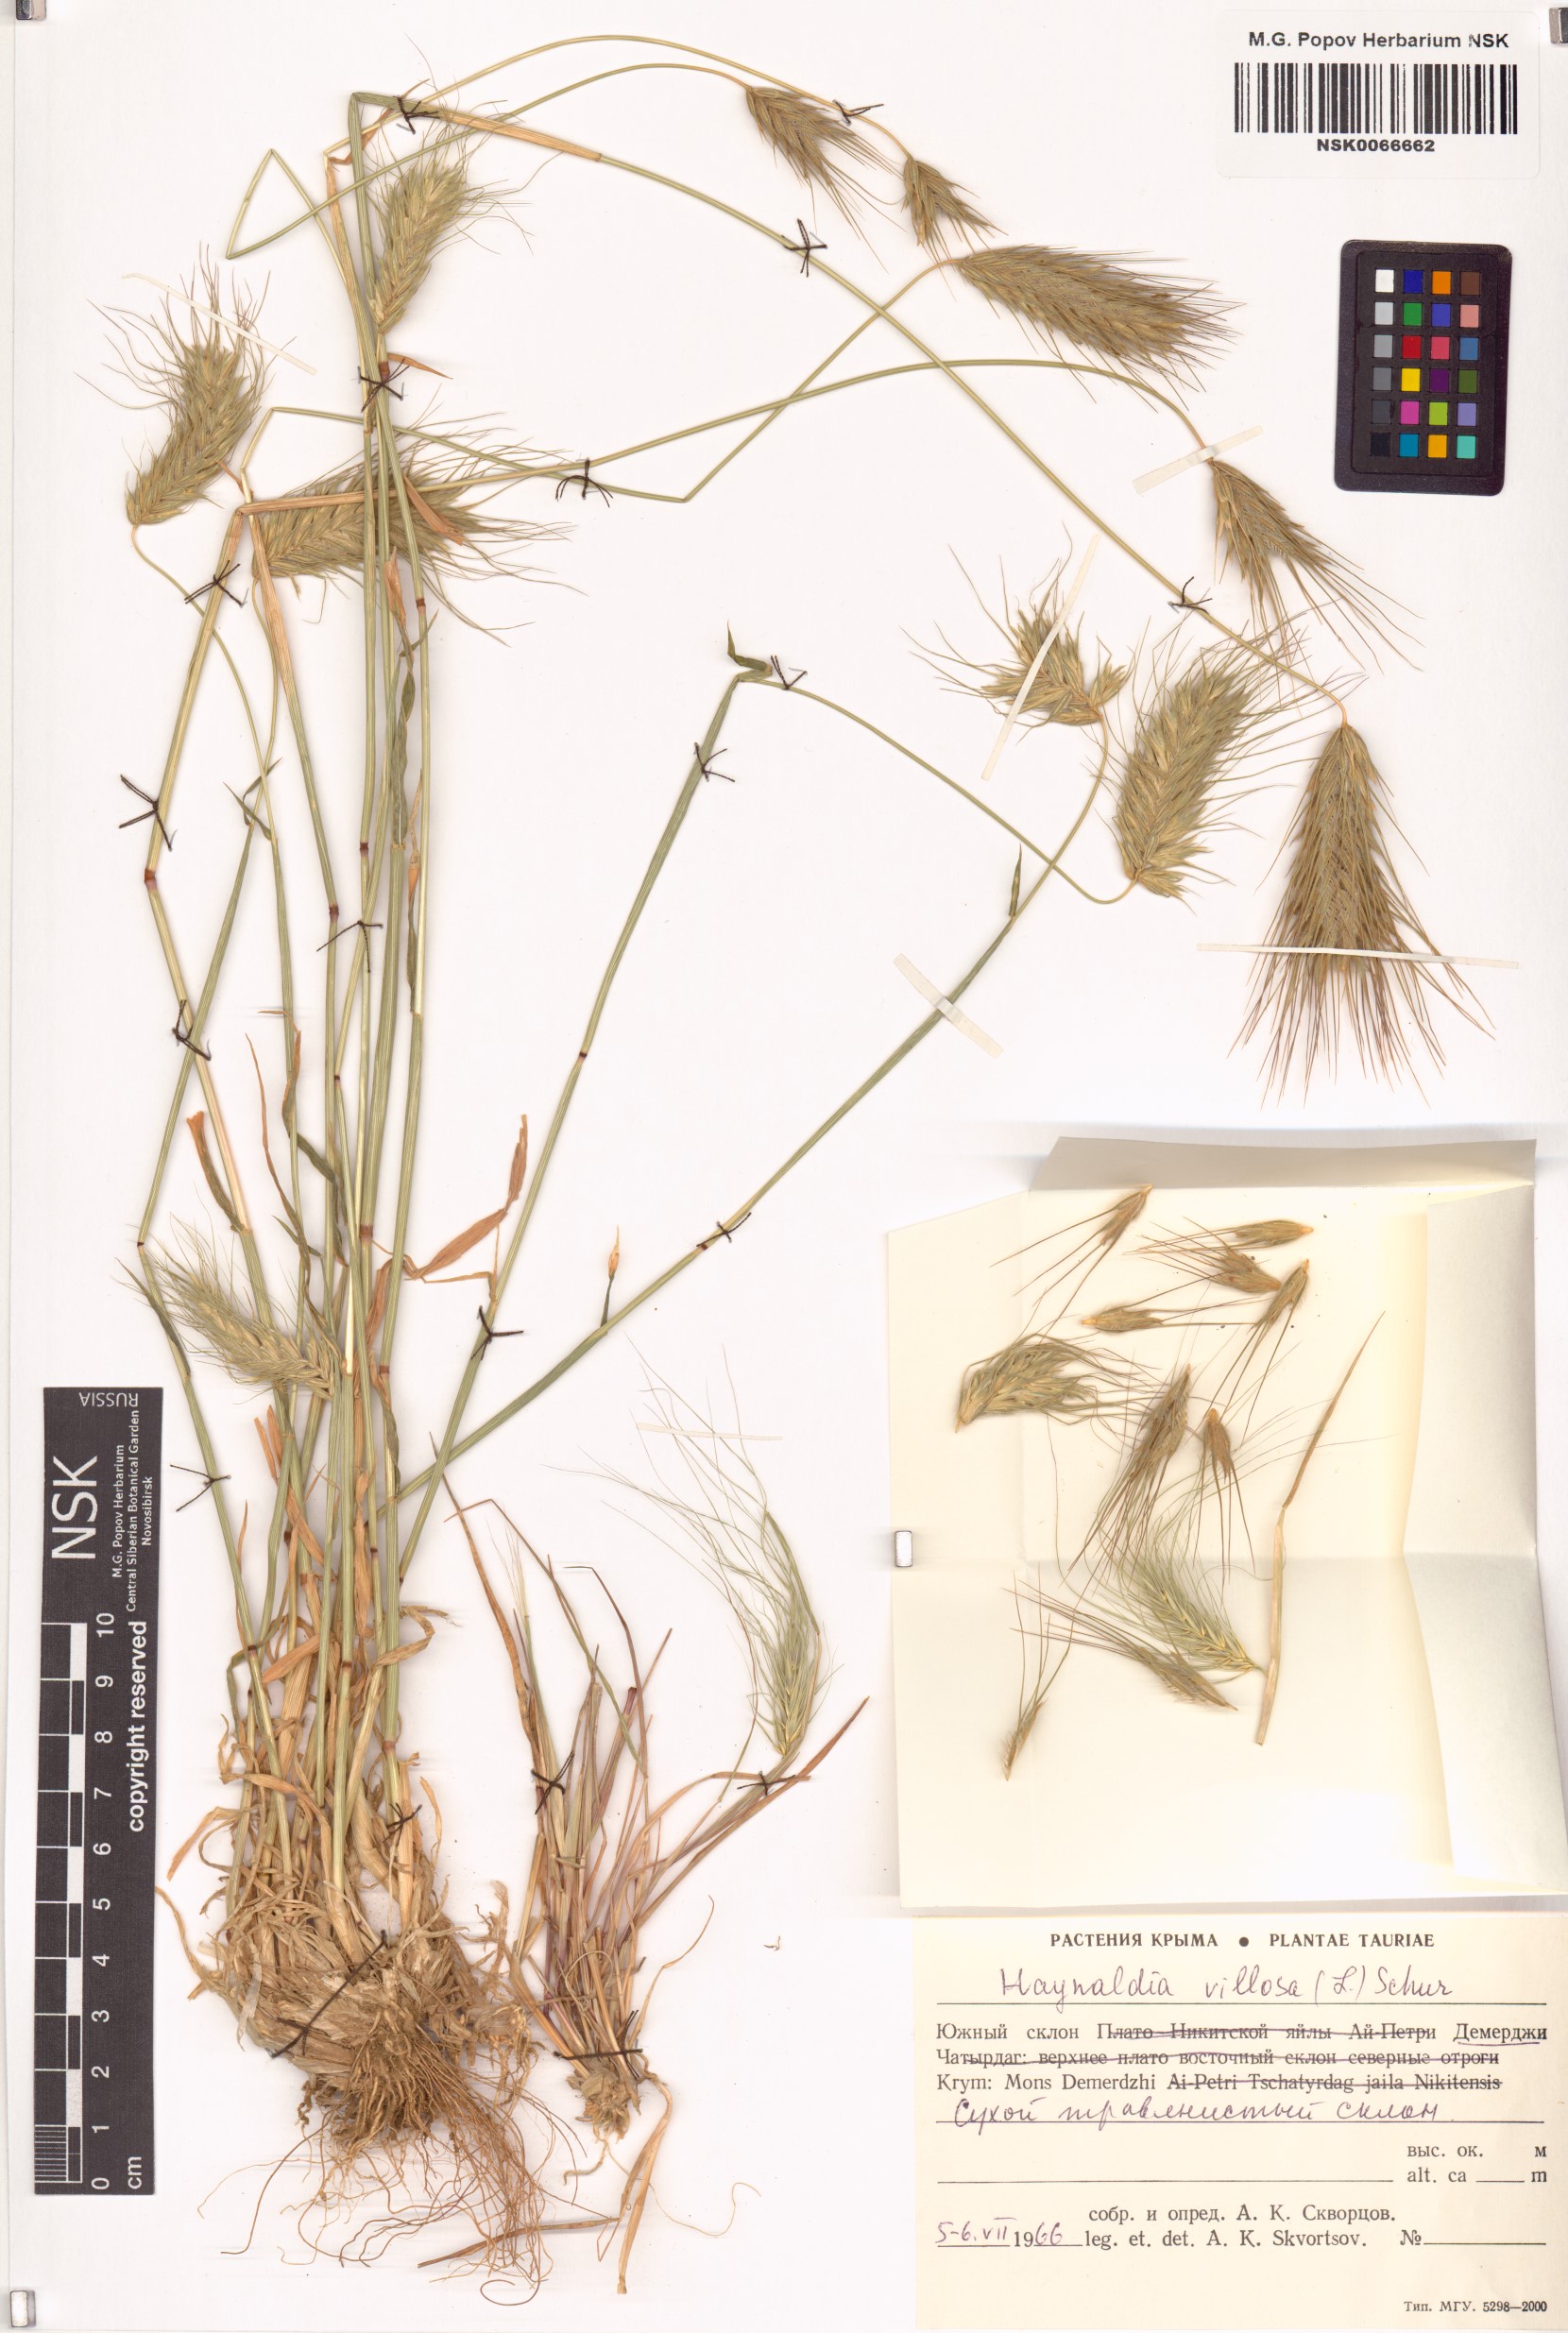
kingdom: Plantae
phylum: Tracheophyta
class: Liliopsida
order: Poales
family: Poaceae
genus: Dasypyrum
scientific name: Dasypyrum villosum
